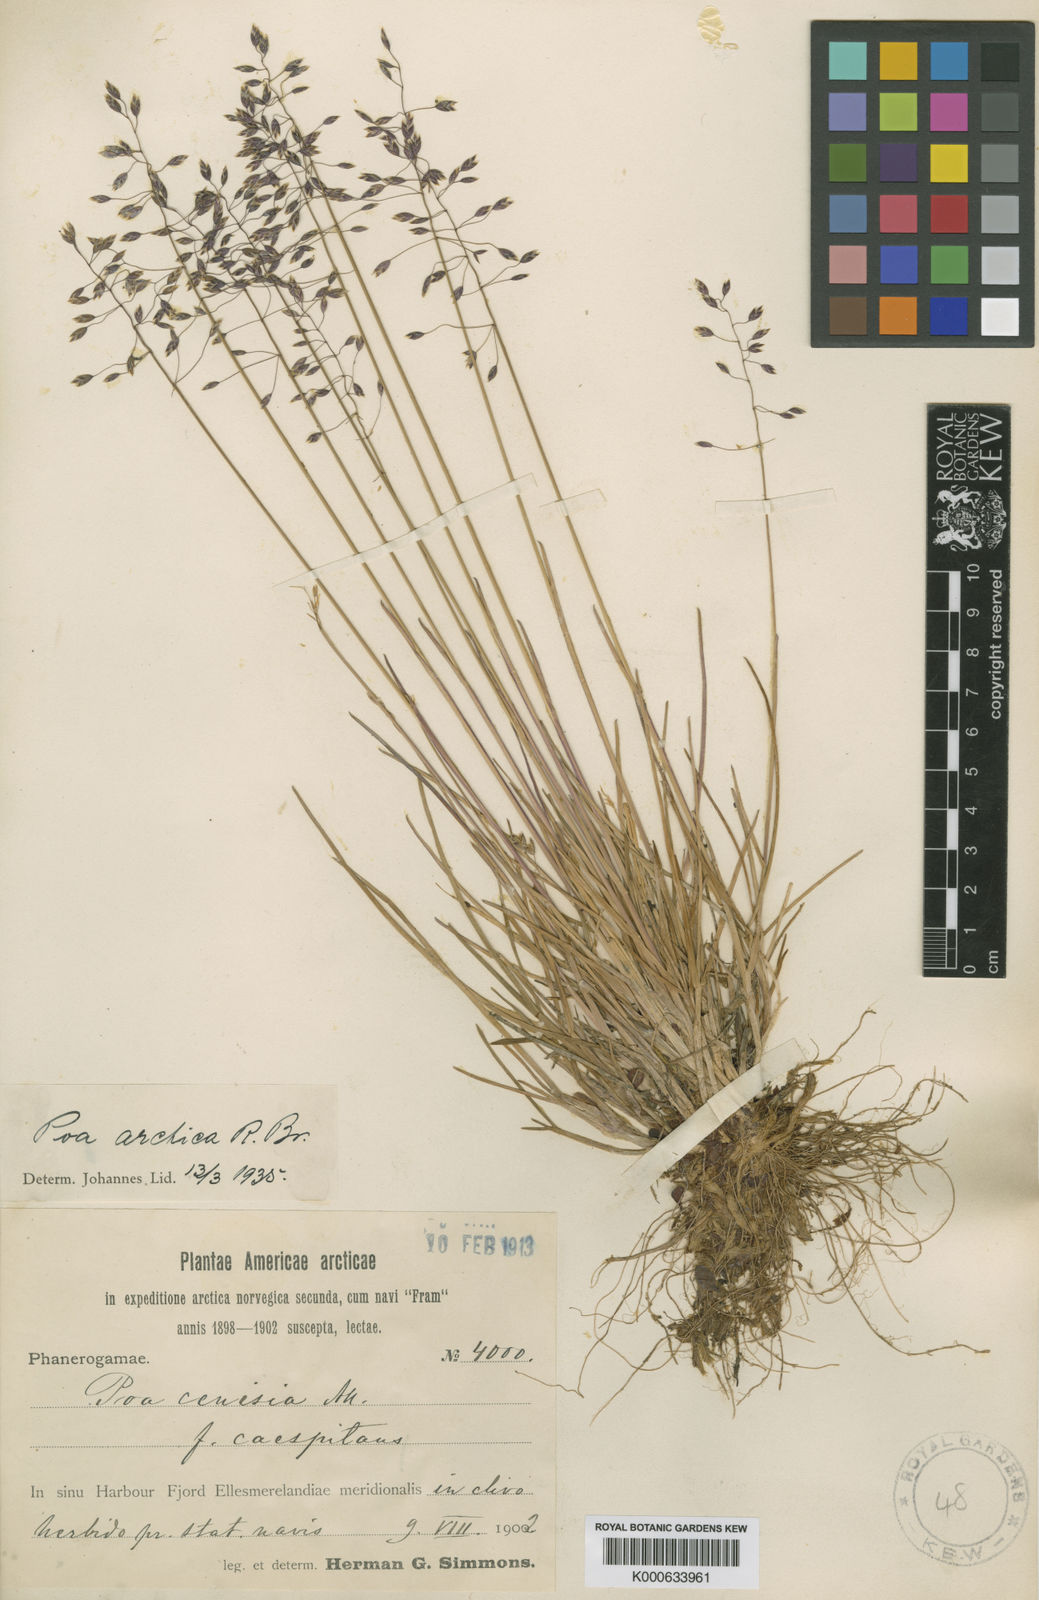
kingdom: Plantae
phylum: Tracheophyta
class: Liliopsida
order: Poales
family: Poaceae
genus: Poa
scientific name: Poa arctica
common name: Arctic bluegrass
